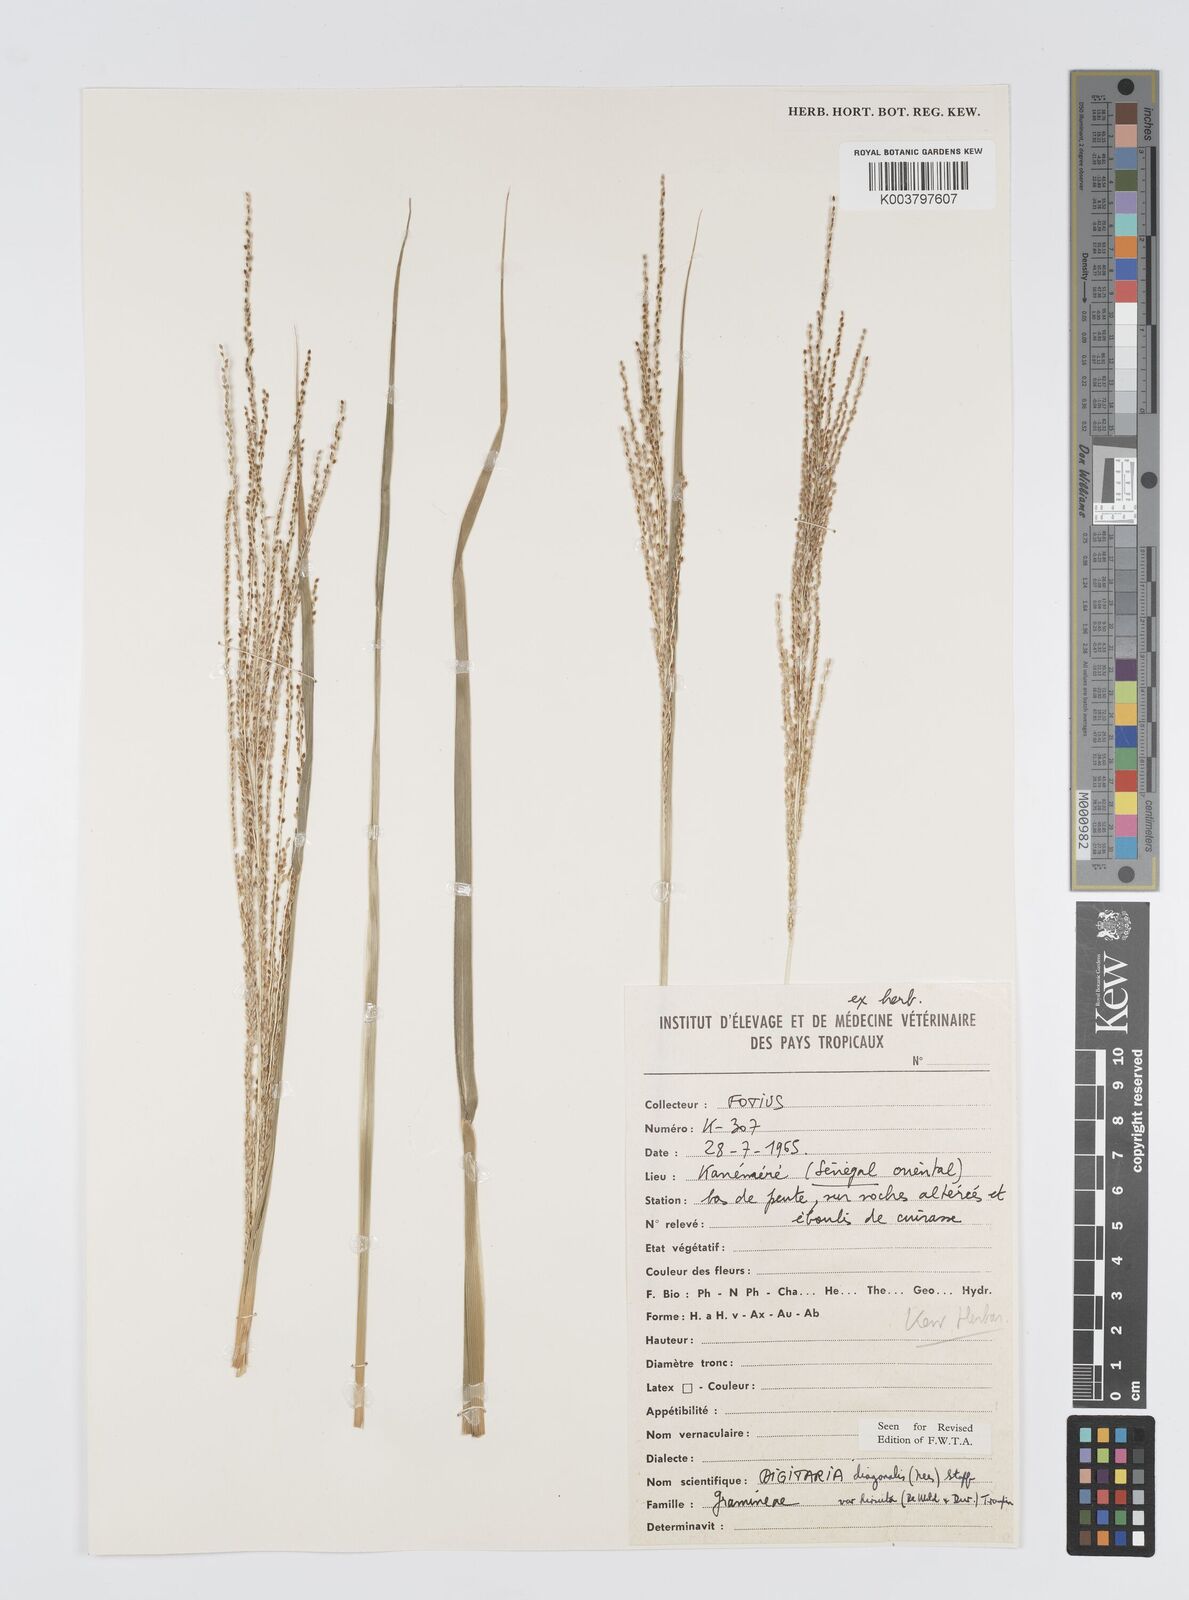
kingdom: Plantae
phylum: Tracheophyta
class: Liliopsida
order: Poales
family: Poaceae
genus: Digitaria
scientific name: Digitaria diagonalis
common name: Brown-seed finger grass
